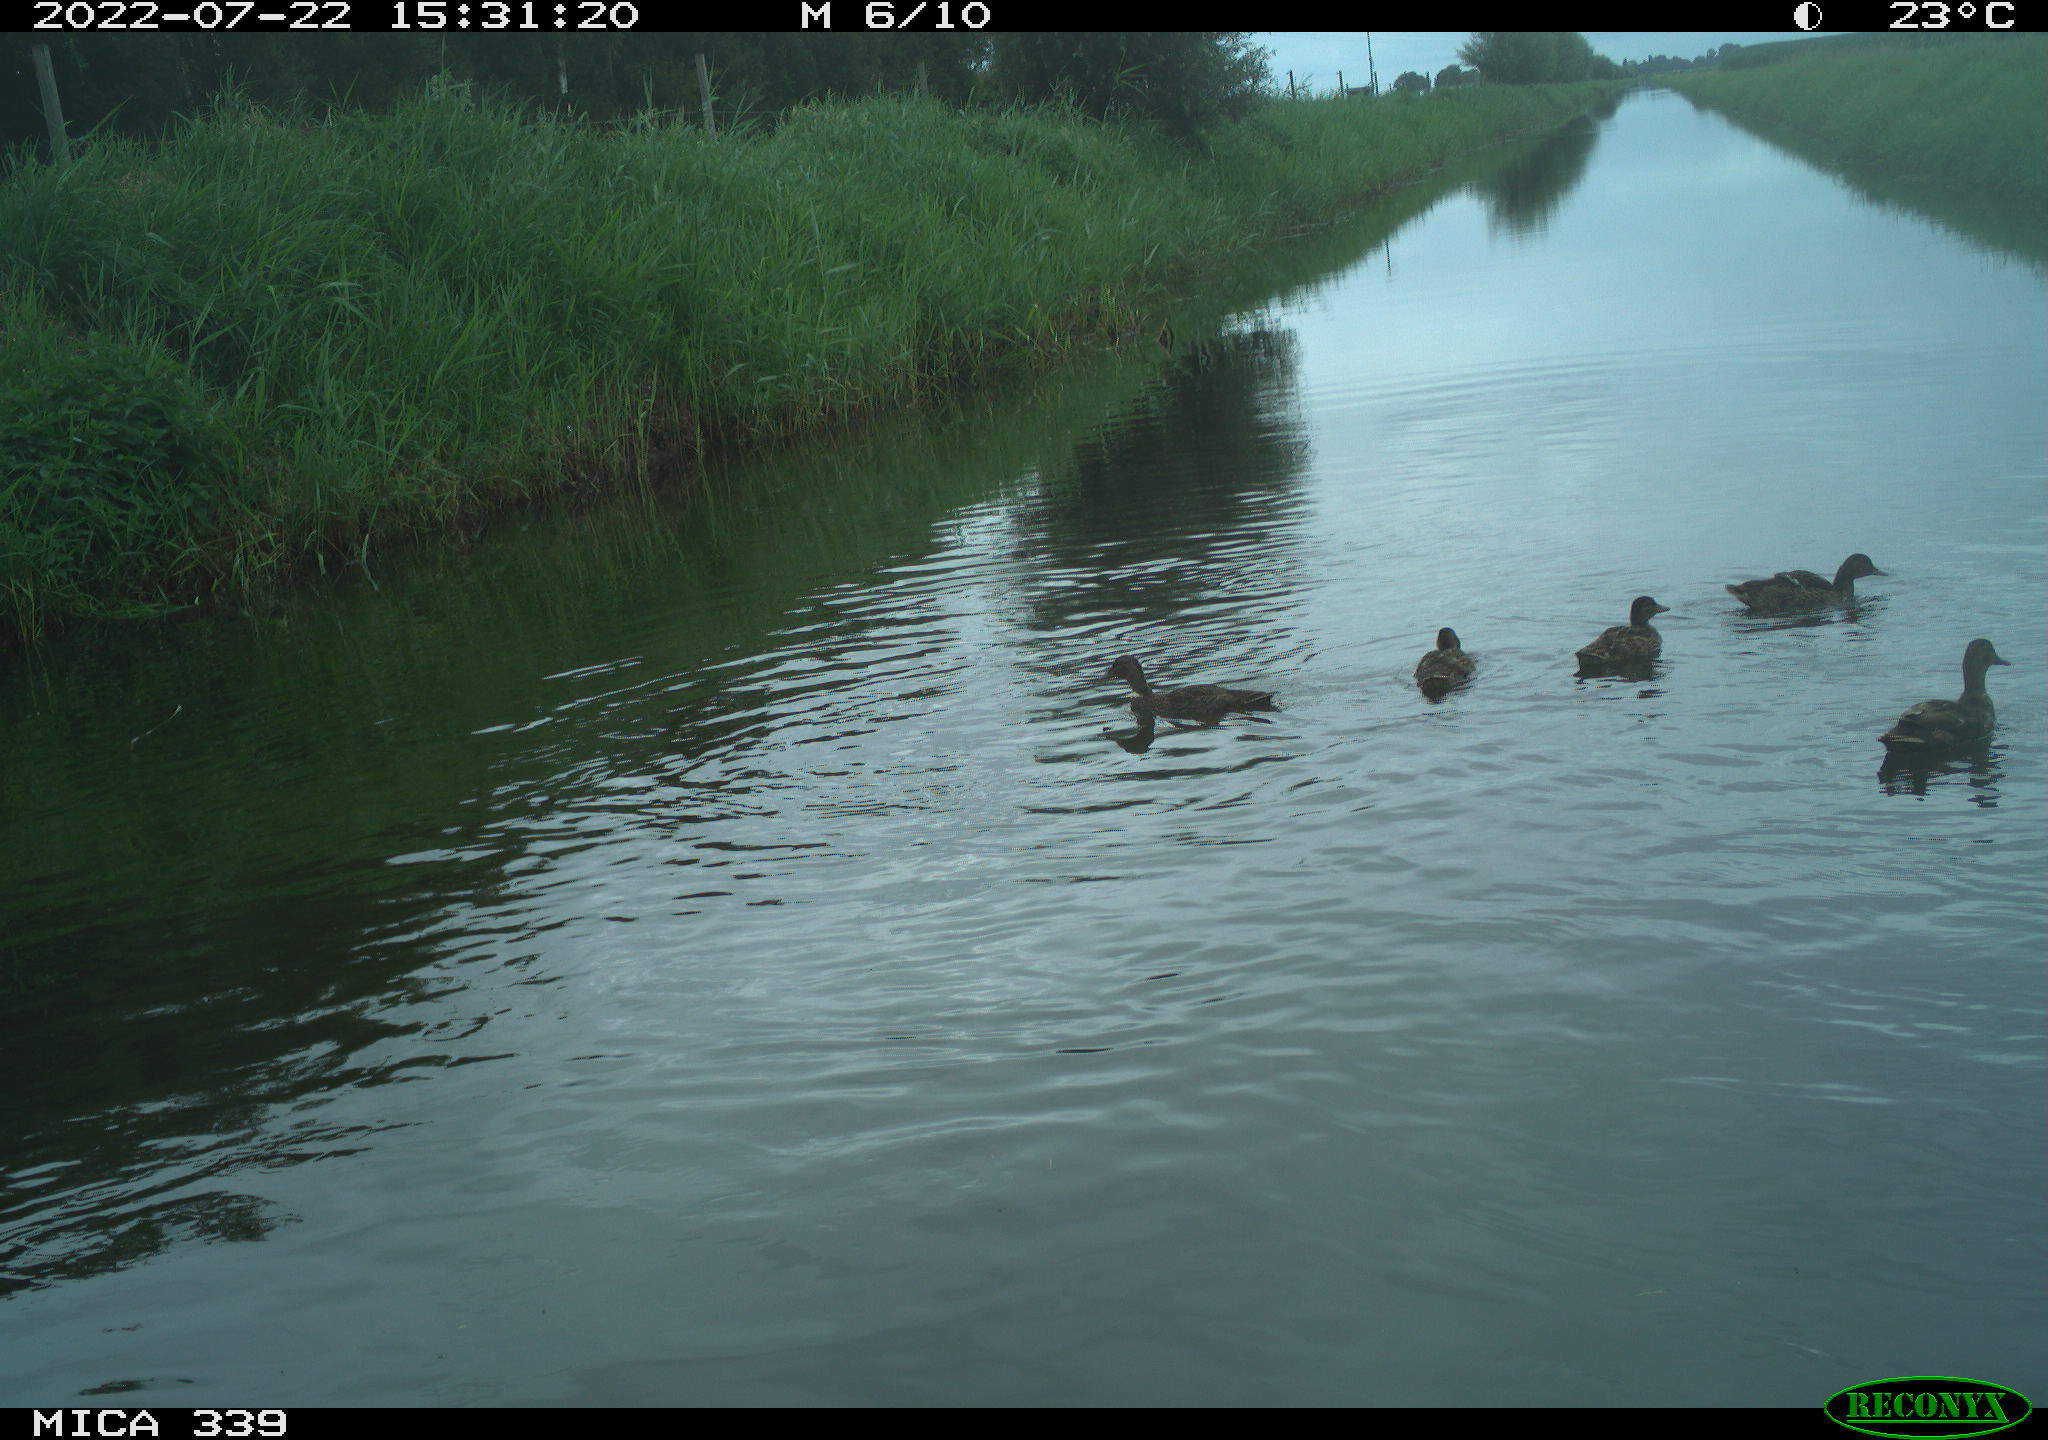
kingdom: Animalia
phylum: Chordata
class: Aves
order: Anseriformes
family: Anatidae
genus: Anas
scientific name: Anas platyrhynchos
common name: Mallard
